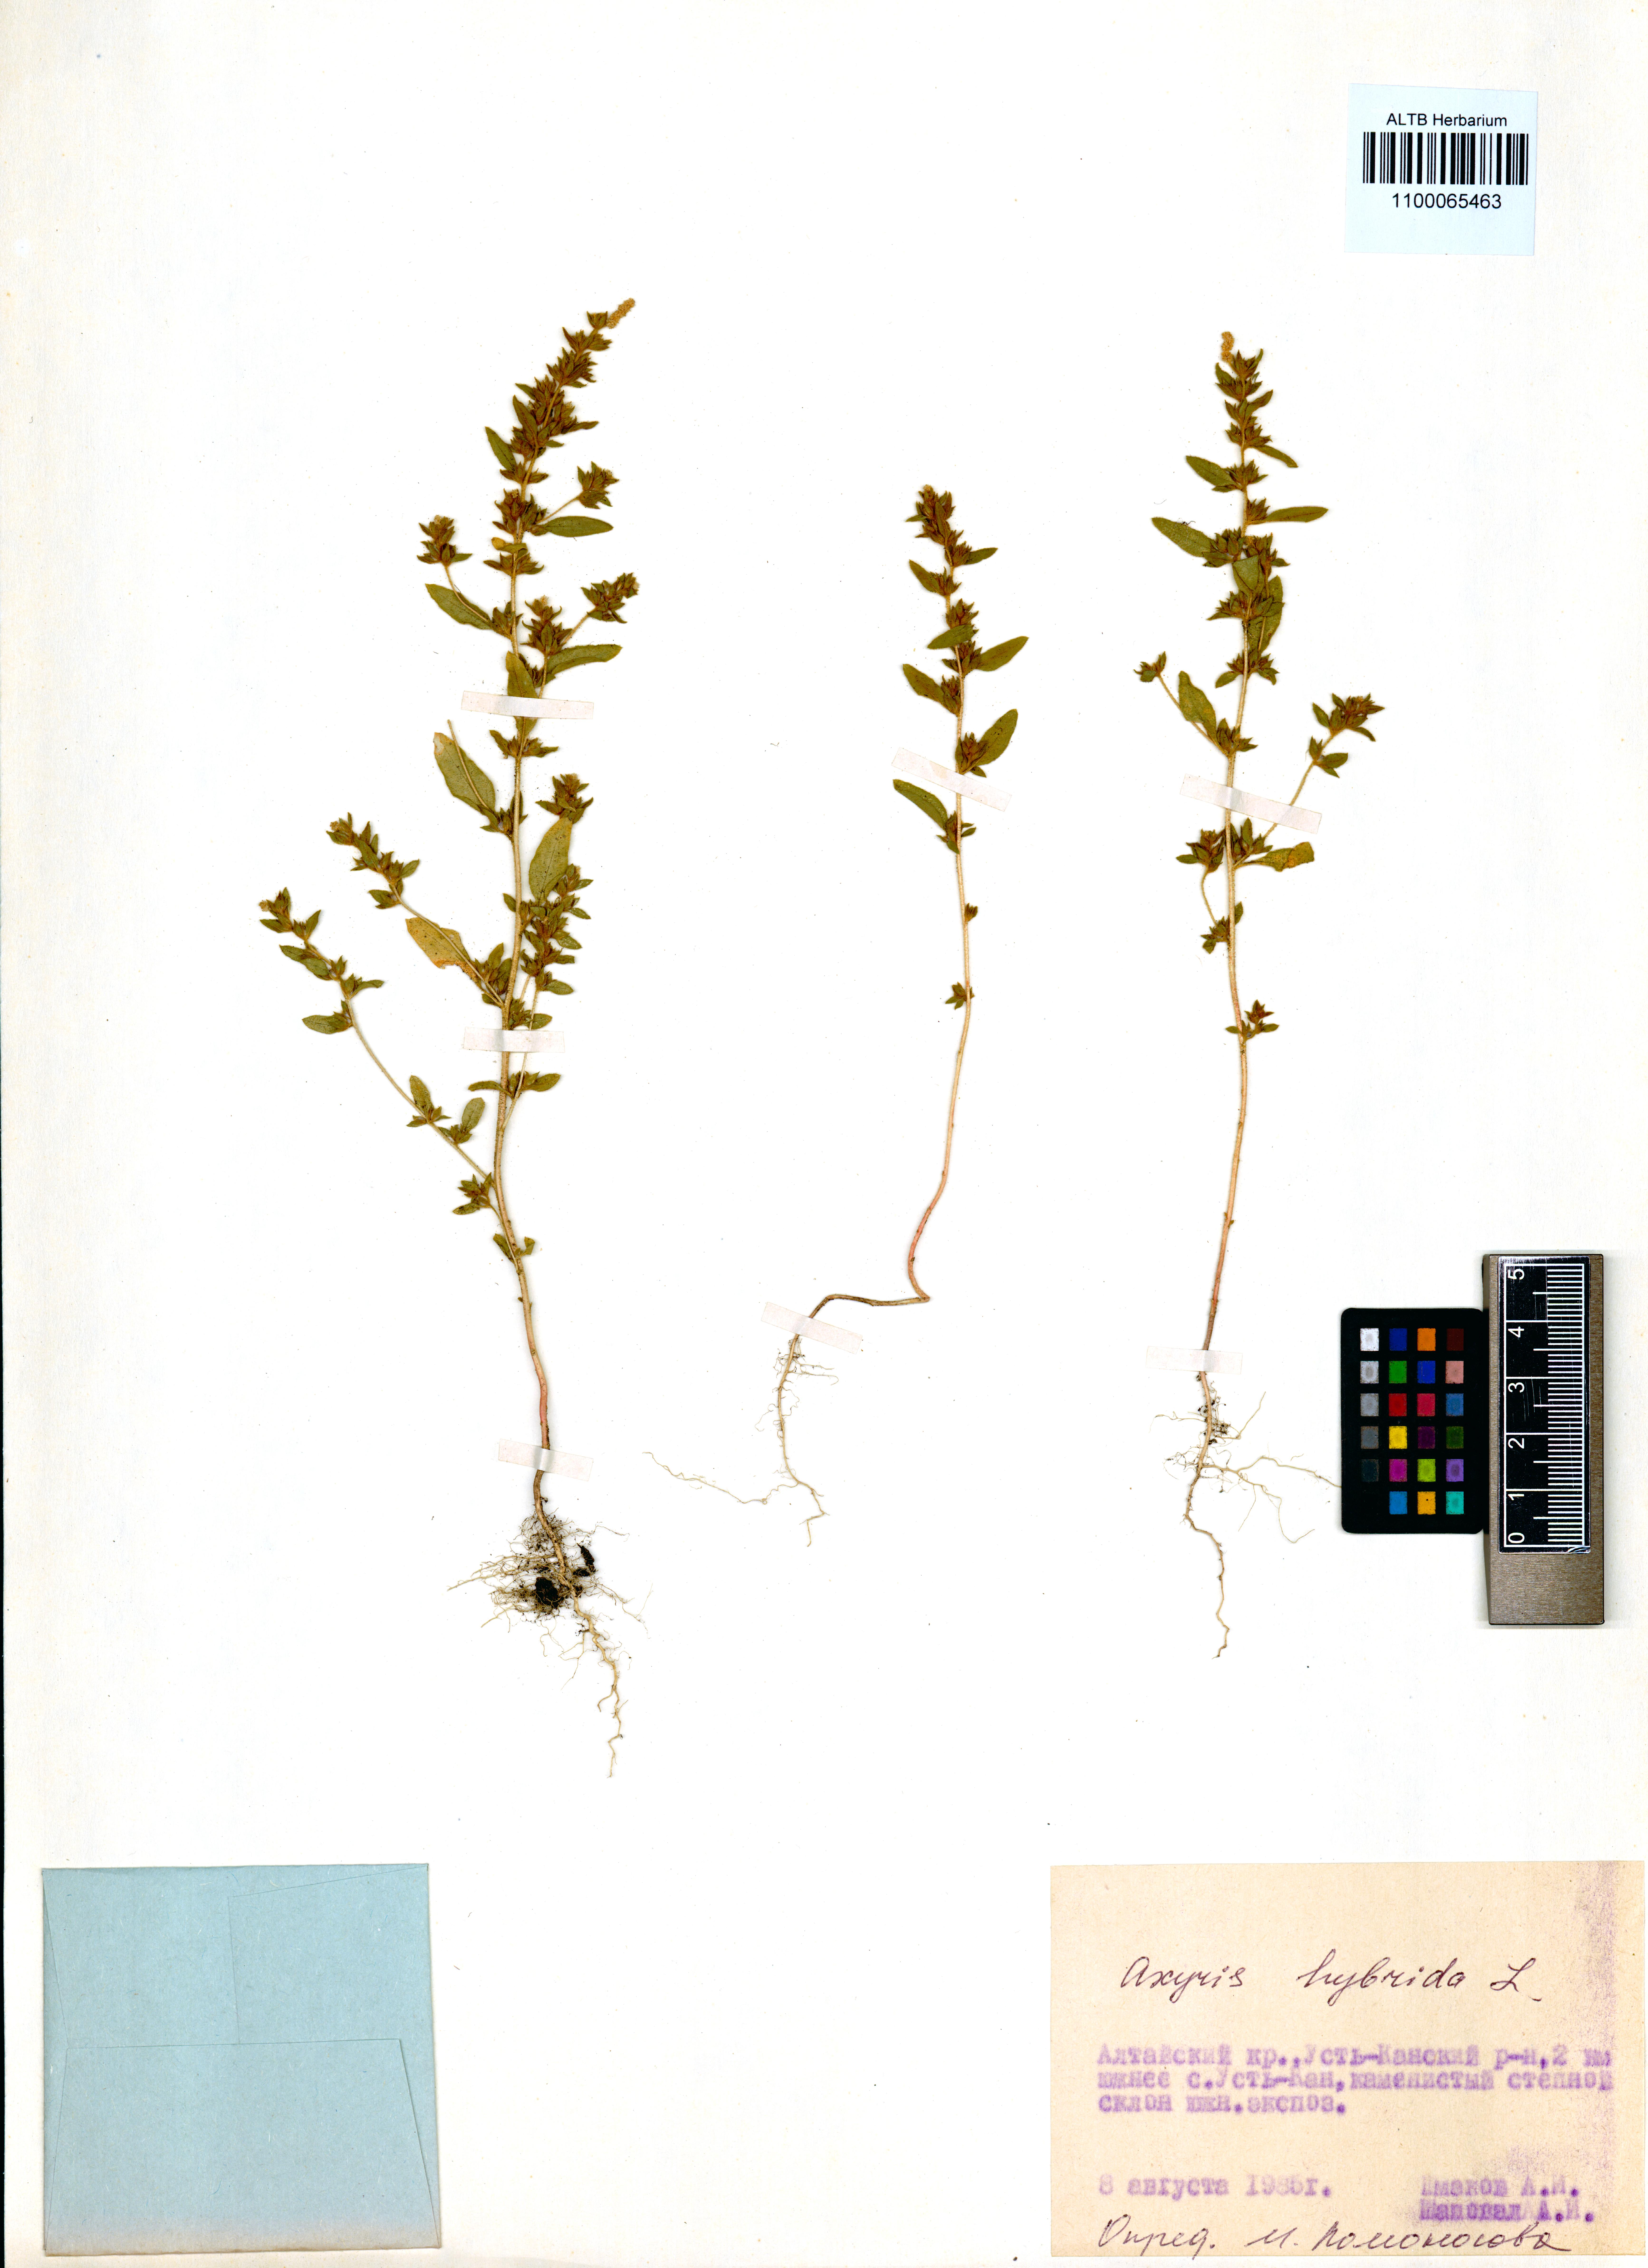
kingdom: Plantae
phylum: Tracheophyta
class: Magnoliopsida
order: Caryophyllales
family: Amaranthaceae
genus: Axyris
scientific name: Axyris hybrida
